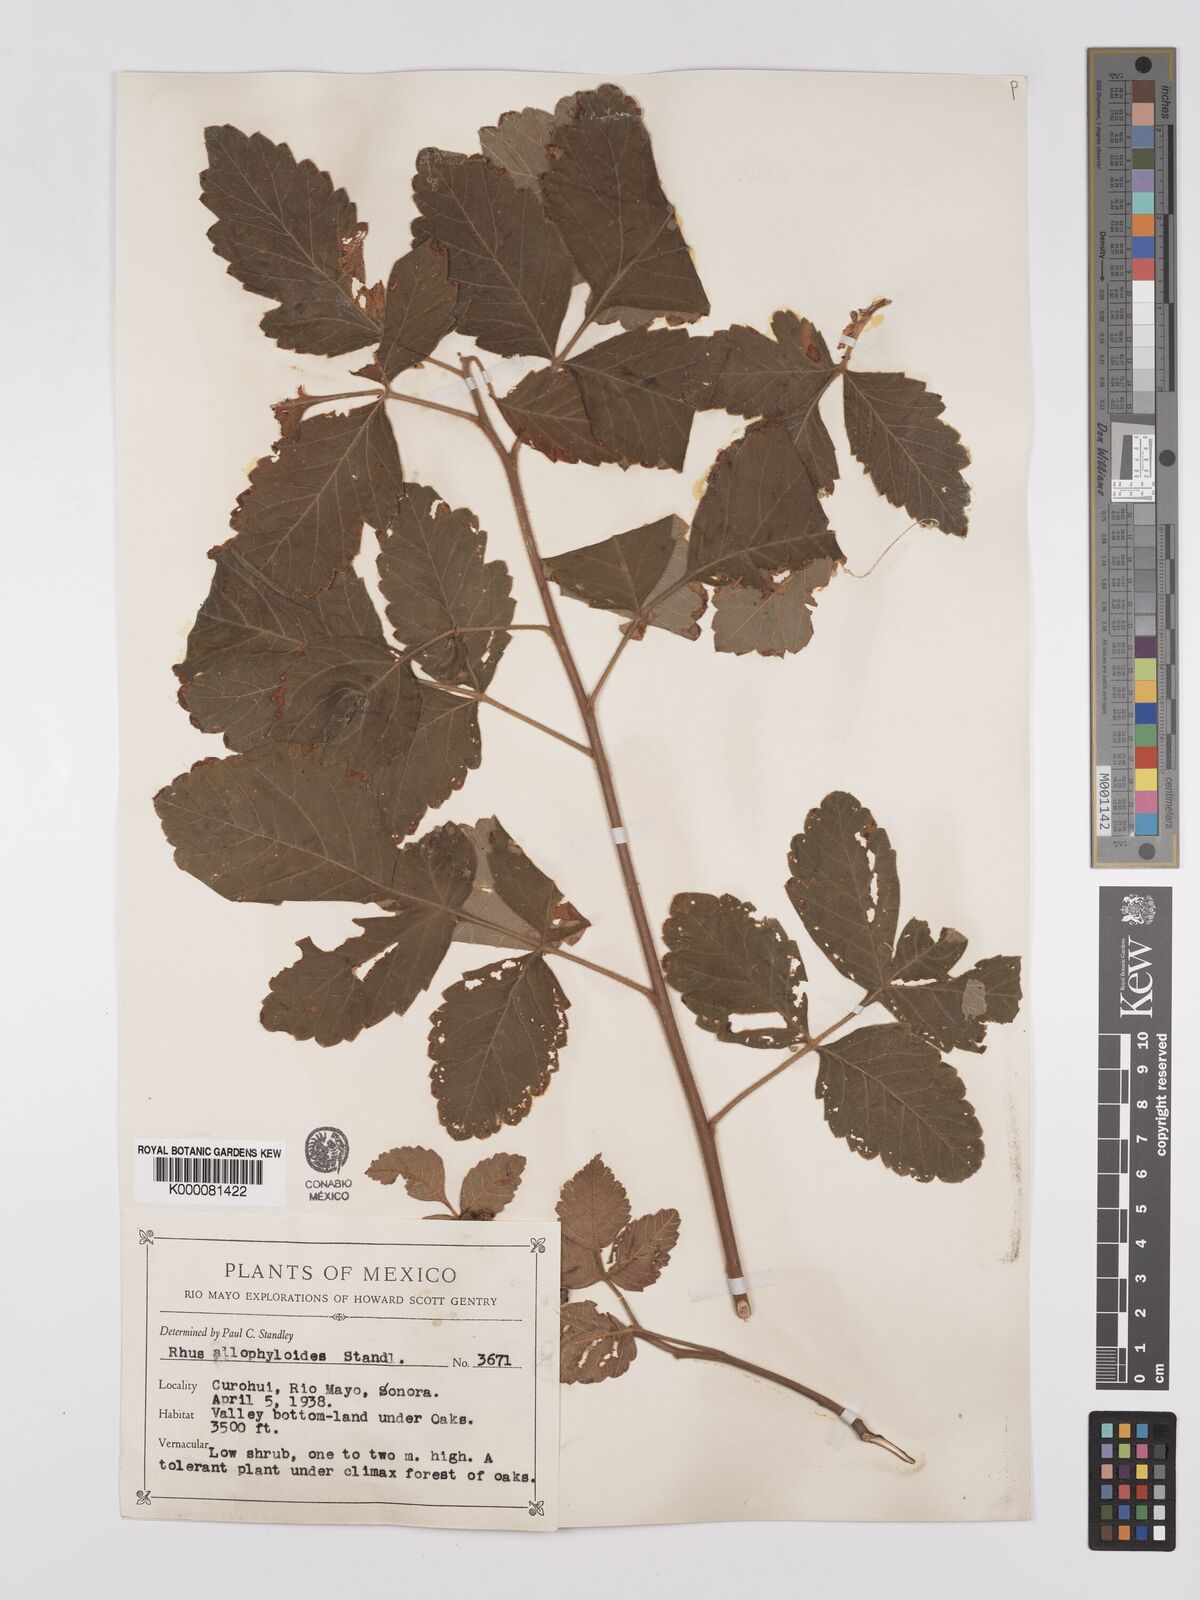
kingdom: Plantae
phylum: Tracheophyta
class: Magnoliopsida
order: Sapindales
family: Anacardiaceae
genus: Rhus
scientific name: Rhus allophyloides
